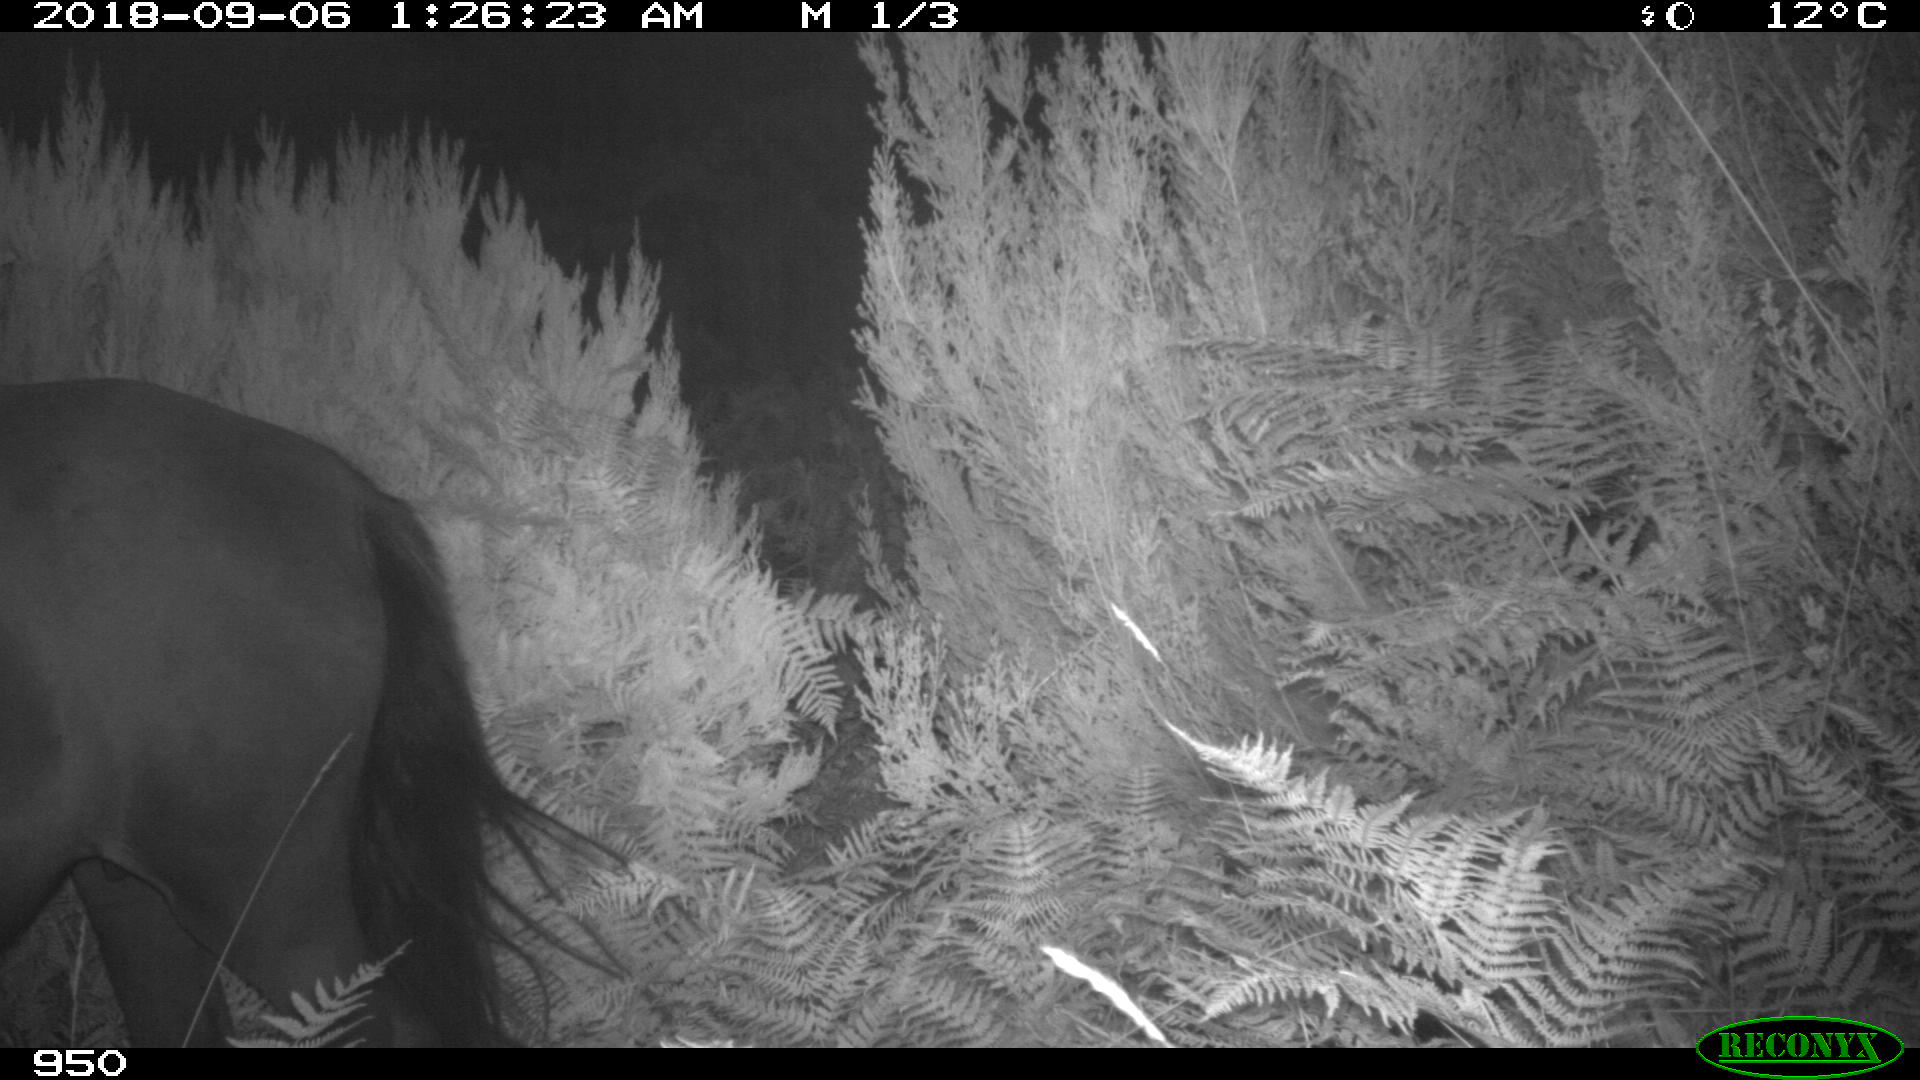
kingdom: Animalia
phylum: Chordata
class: Mammalia
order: Perissodactyla
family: Equidae
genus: Equus
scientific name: Equus caballus
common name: Horse
